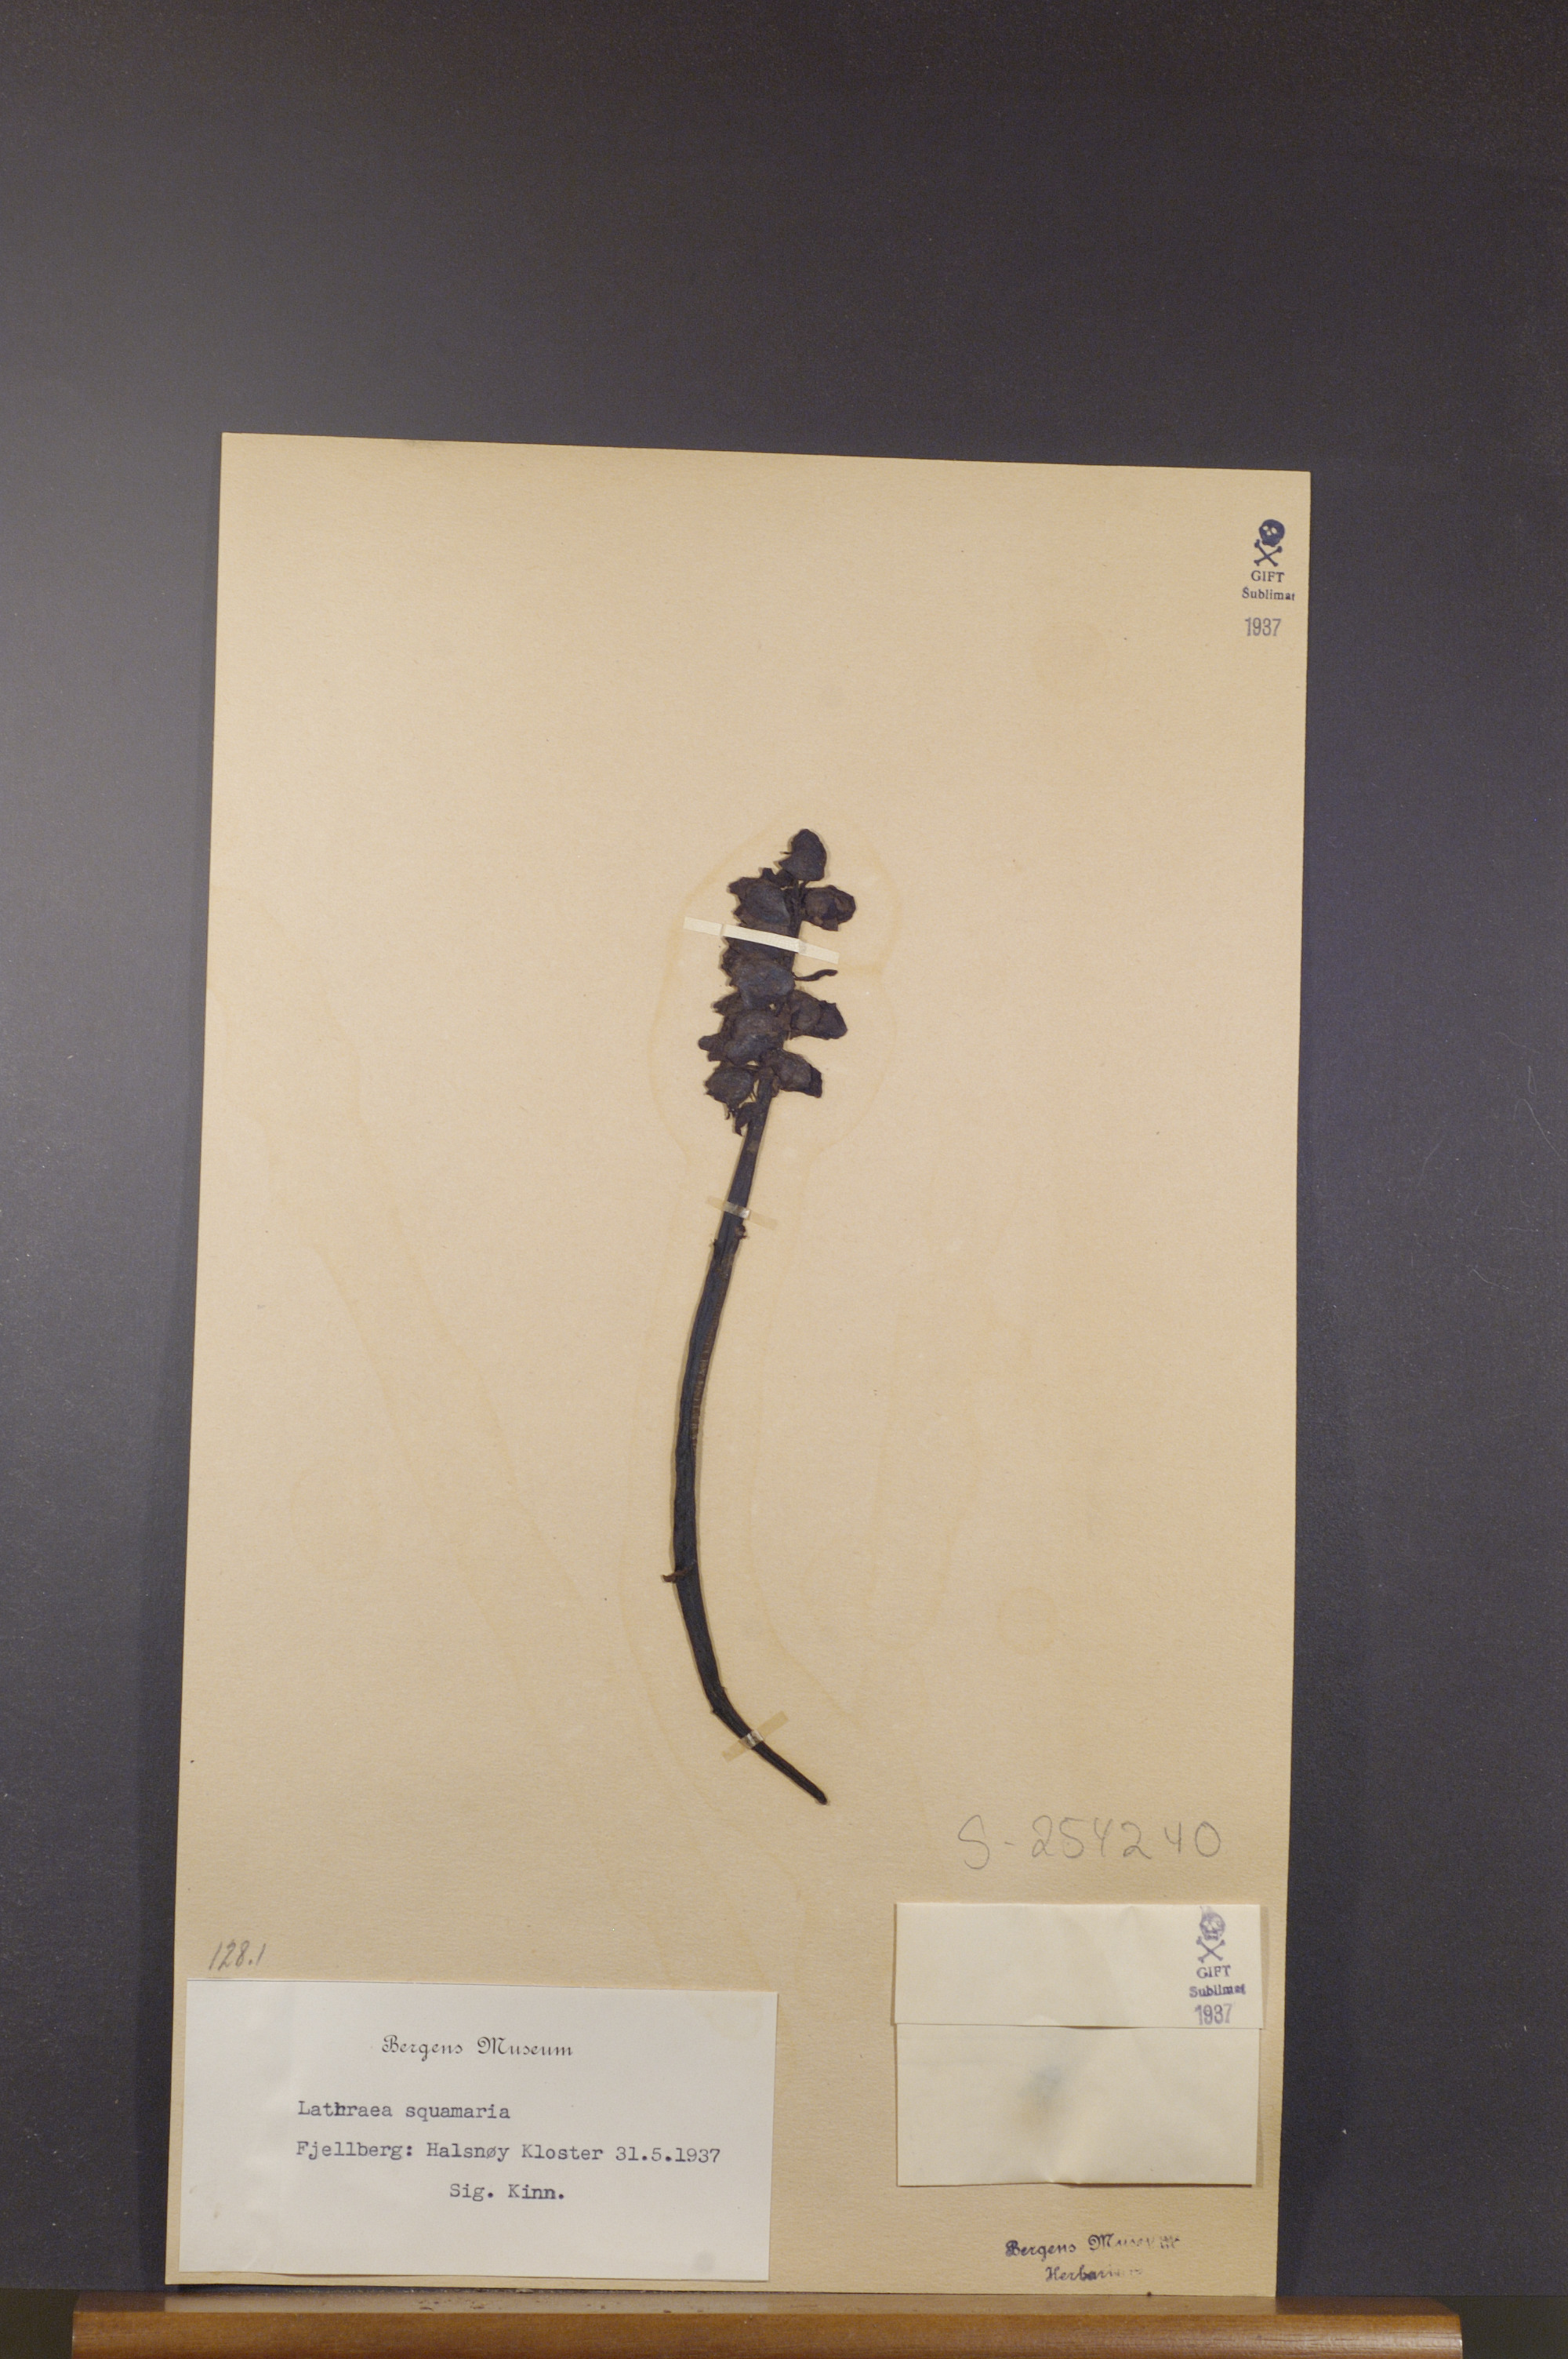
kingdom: Plantae
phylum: Tracheophyta
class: Magnoliopsida
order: Lamiales
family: Orobanchaceae
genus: Lathraea
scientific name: Lathraea squamaria
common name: Toothwort
